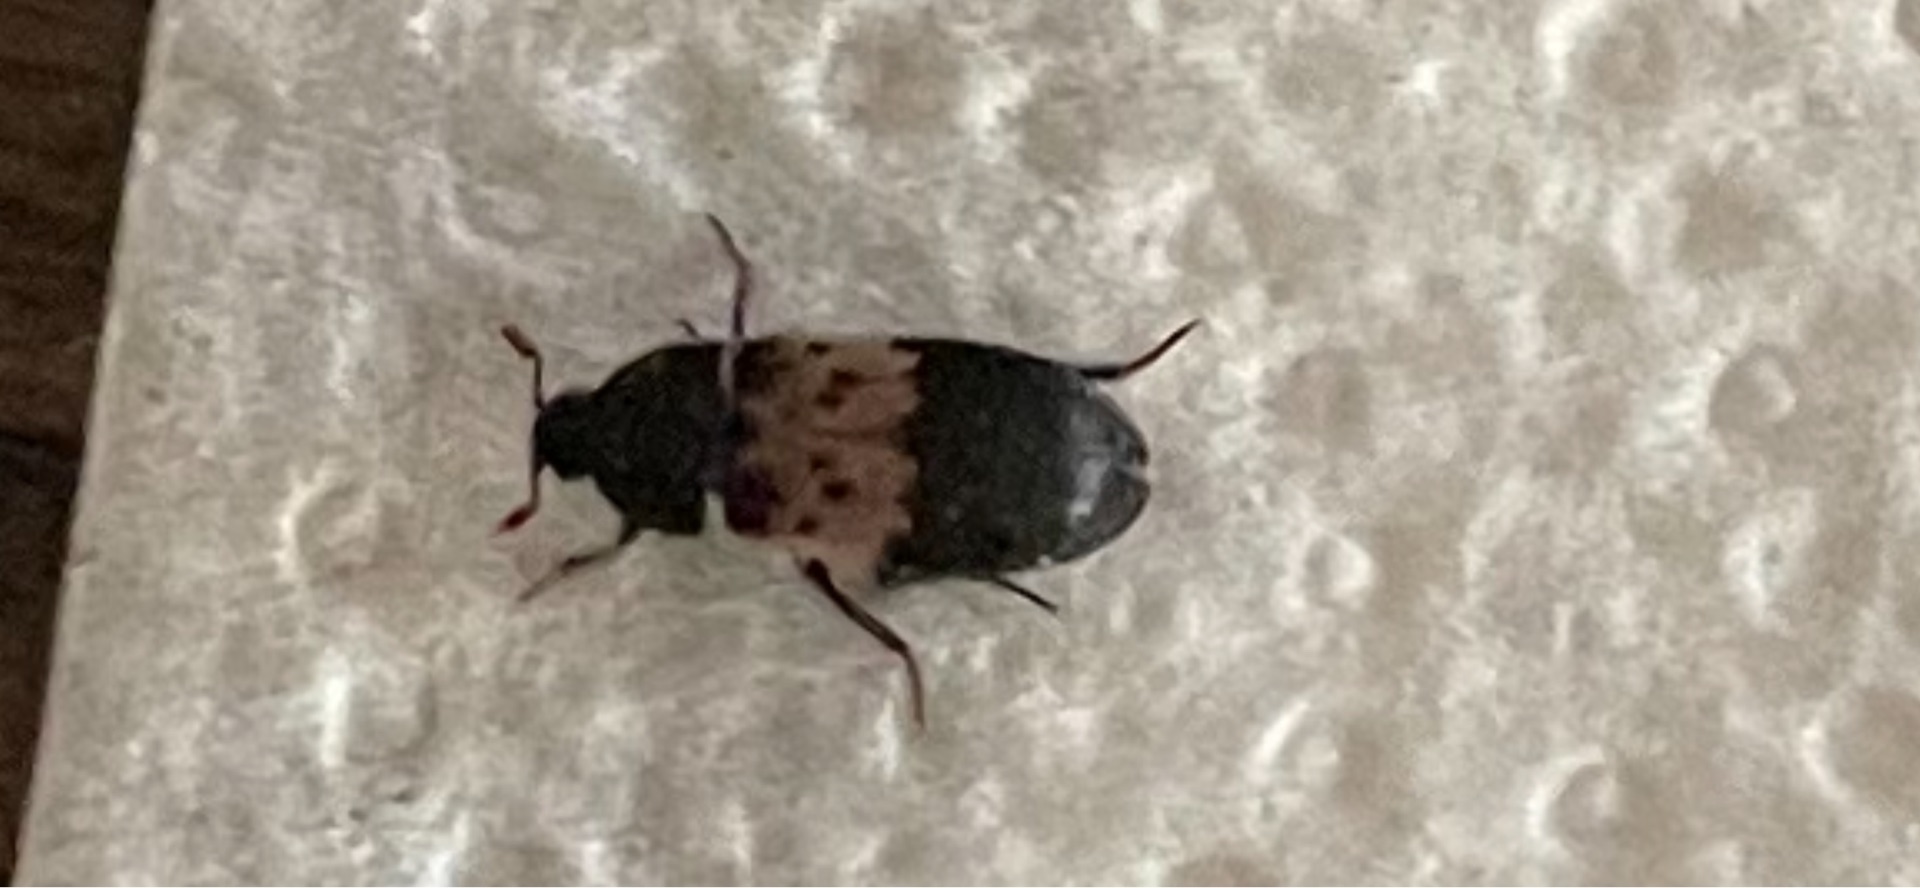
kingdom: Animalia
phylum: Arthropoda
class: Insecta
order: Coleoptera
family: Dermestidae
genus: Dermestes
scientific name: Dermestes lardarius
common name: Flæskeklanner
